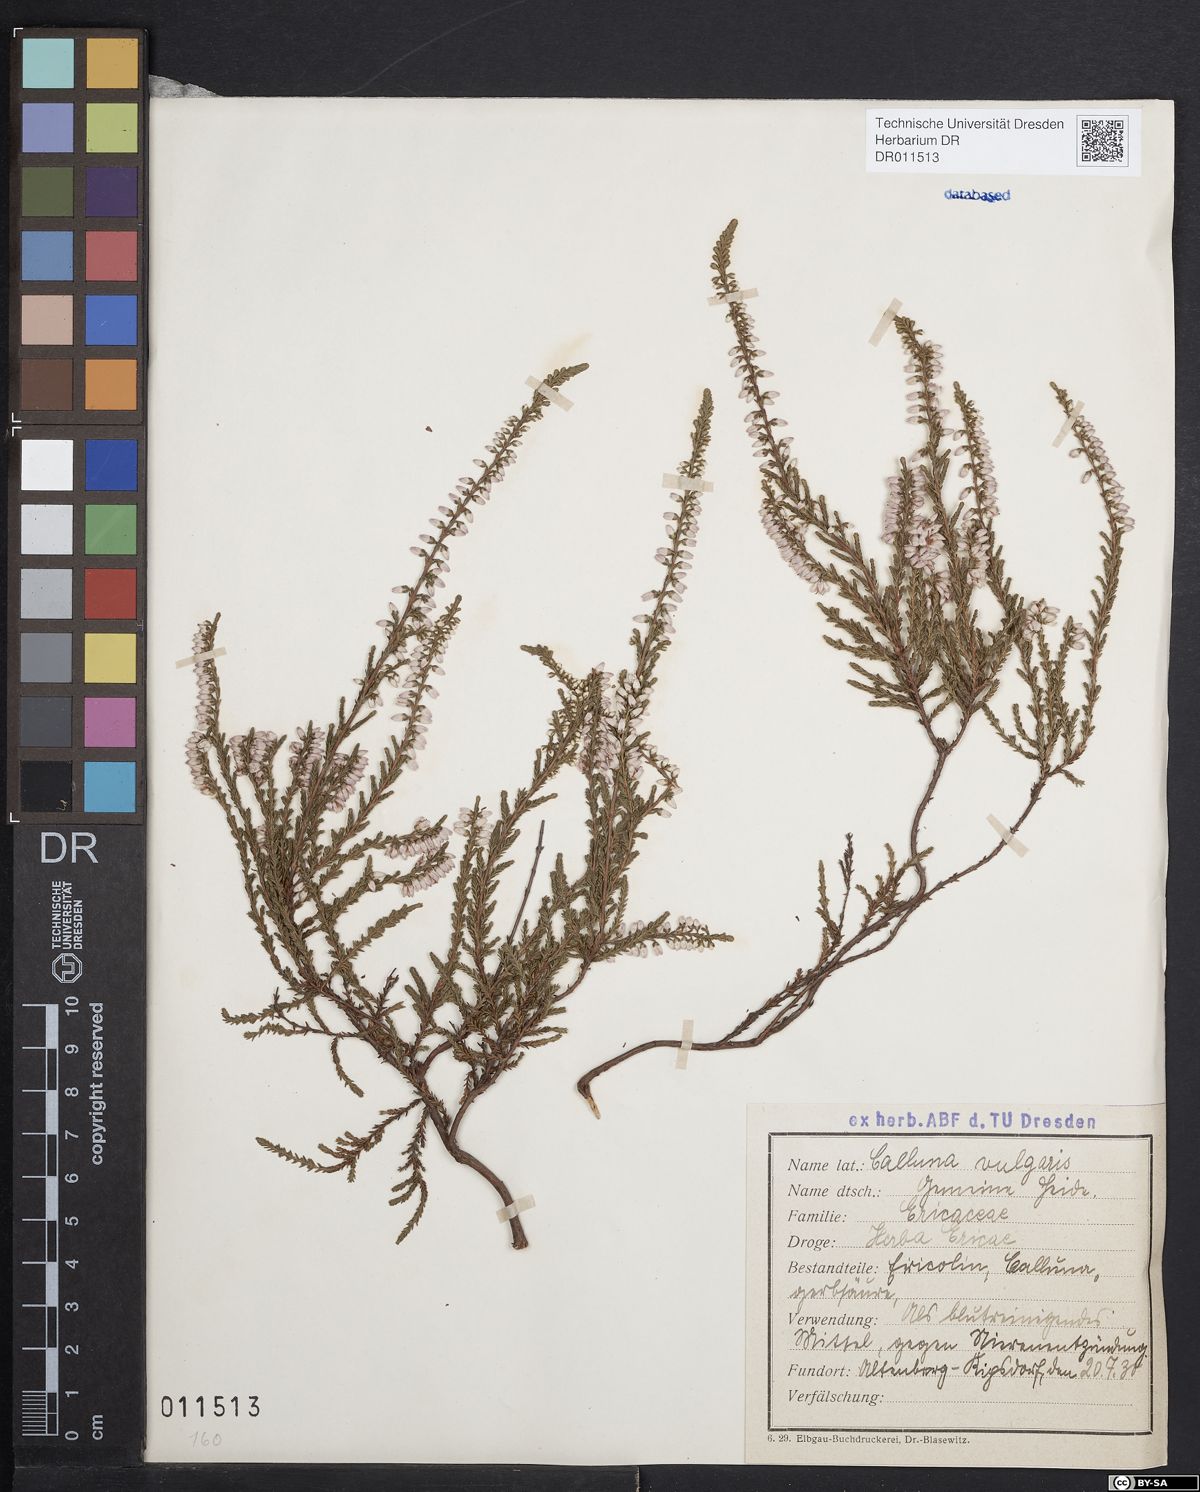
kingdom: Plantae
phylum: Tracheophyta
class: Magnoliopsida
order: Ericales
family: Ericaceae
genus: Calluna
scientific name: Calluna vulgaris
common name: Heather
